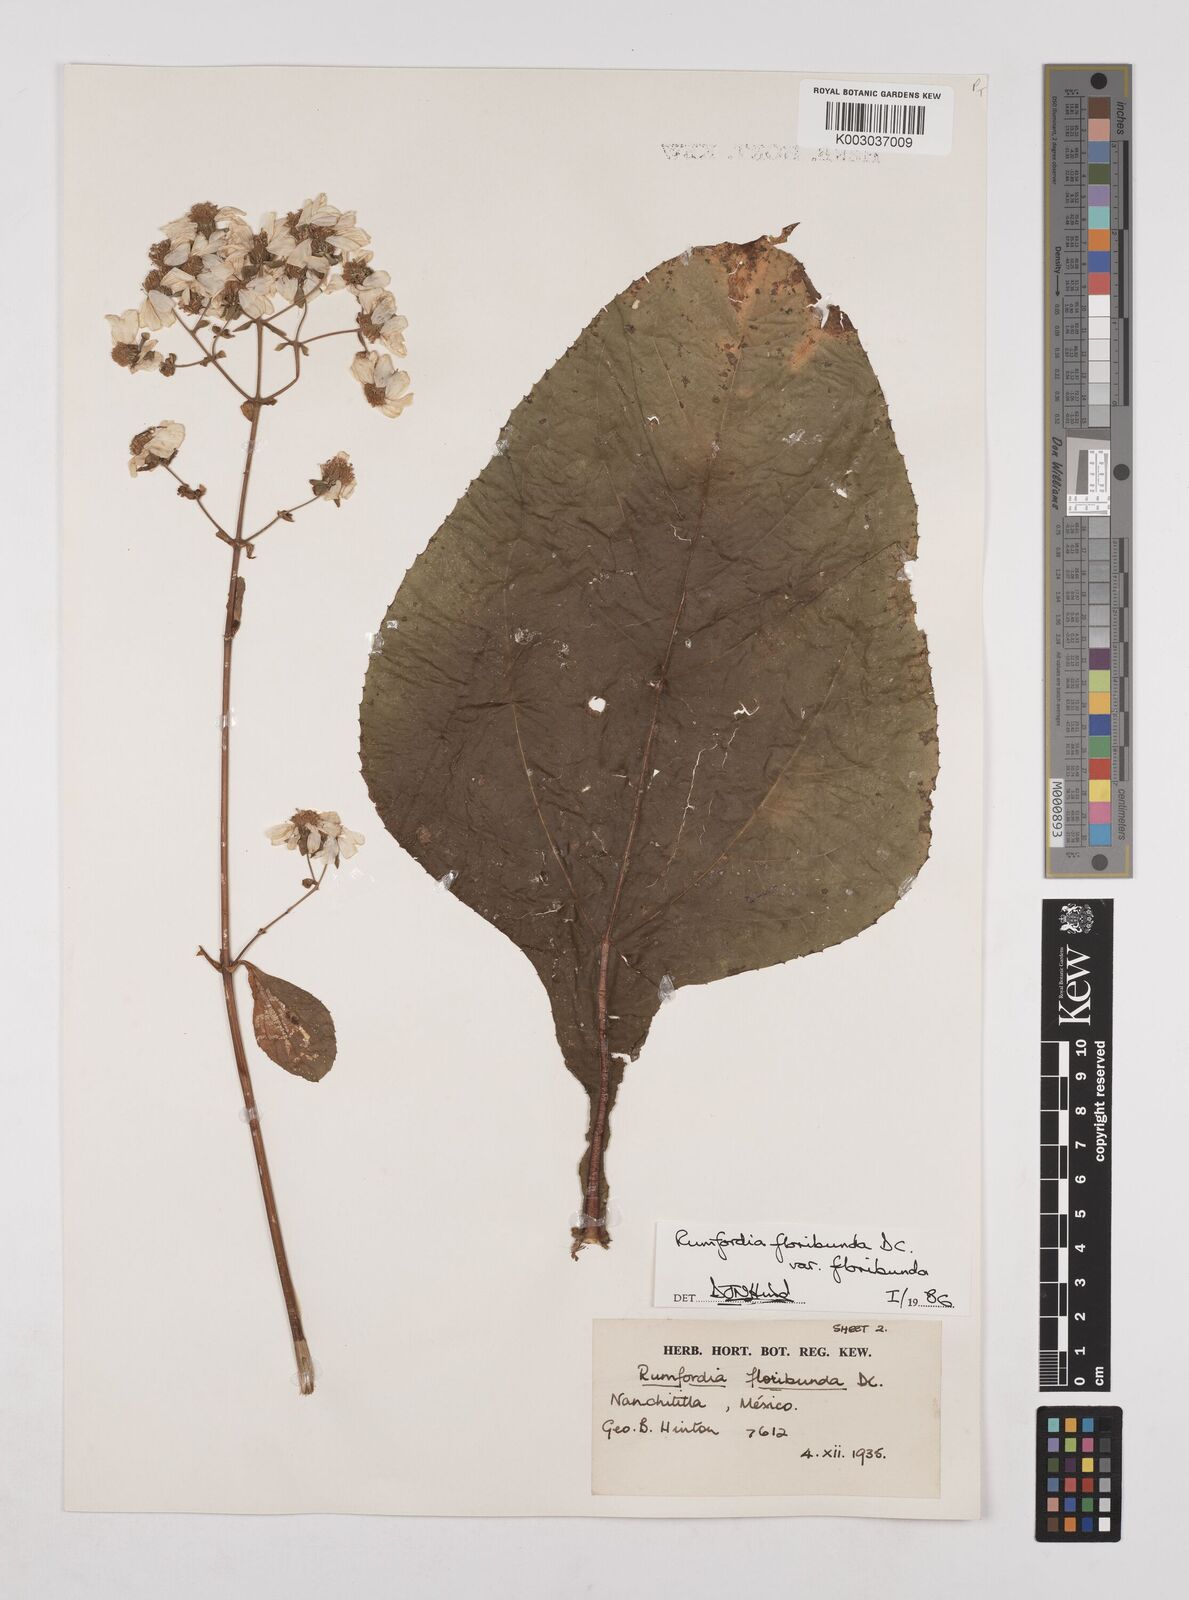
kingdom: Plantae
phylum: Tracheophyta
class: Magnoliopsida
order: Asterales
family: Asteraceae
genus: Rumfordia
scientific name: Rumfordia floribunda
